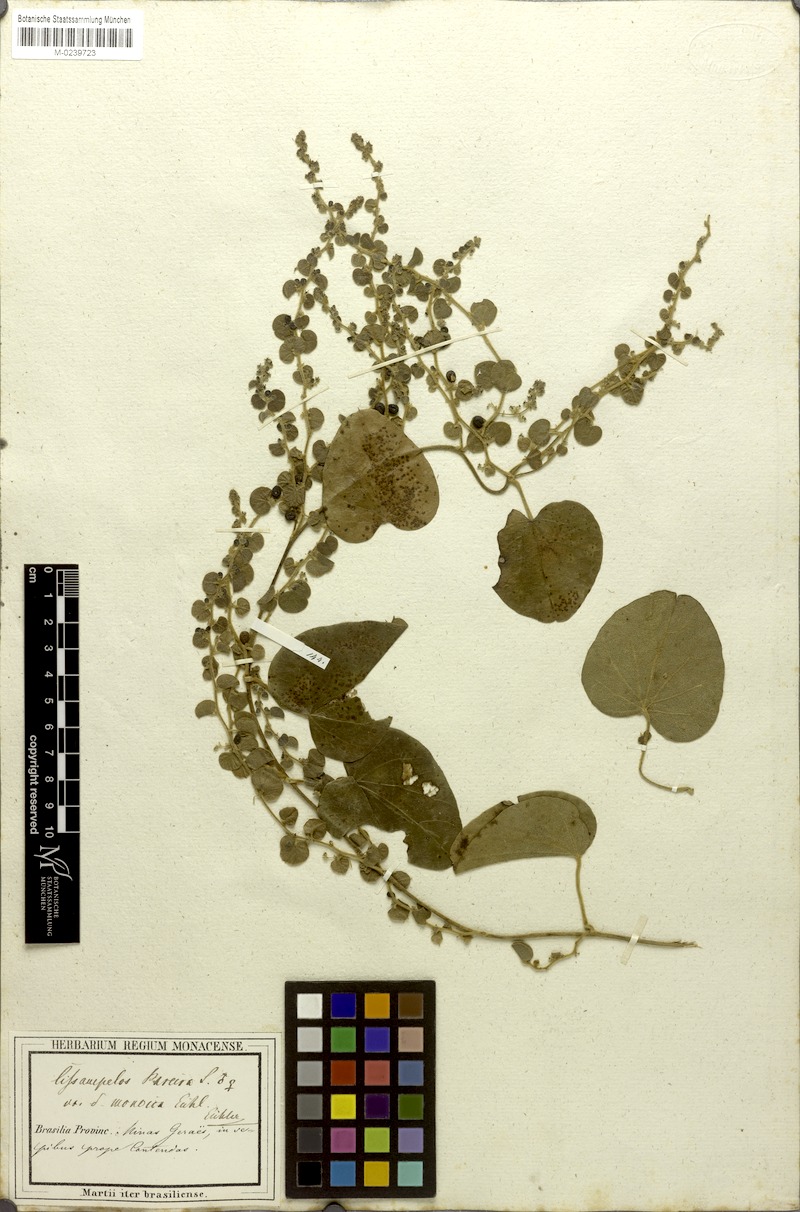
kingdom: Plantae
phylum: Tracheophyta
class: Magnoliopsida
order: Ranunculales
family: Menispermaceae
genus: Cissampelos
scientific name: Cissampelos pareira
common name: Velvetleaf
